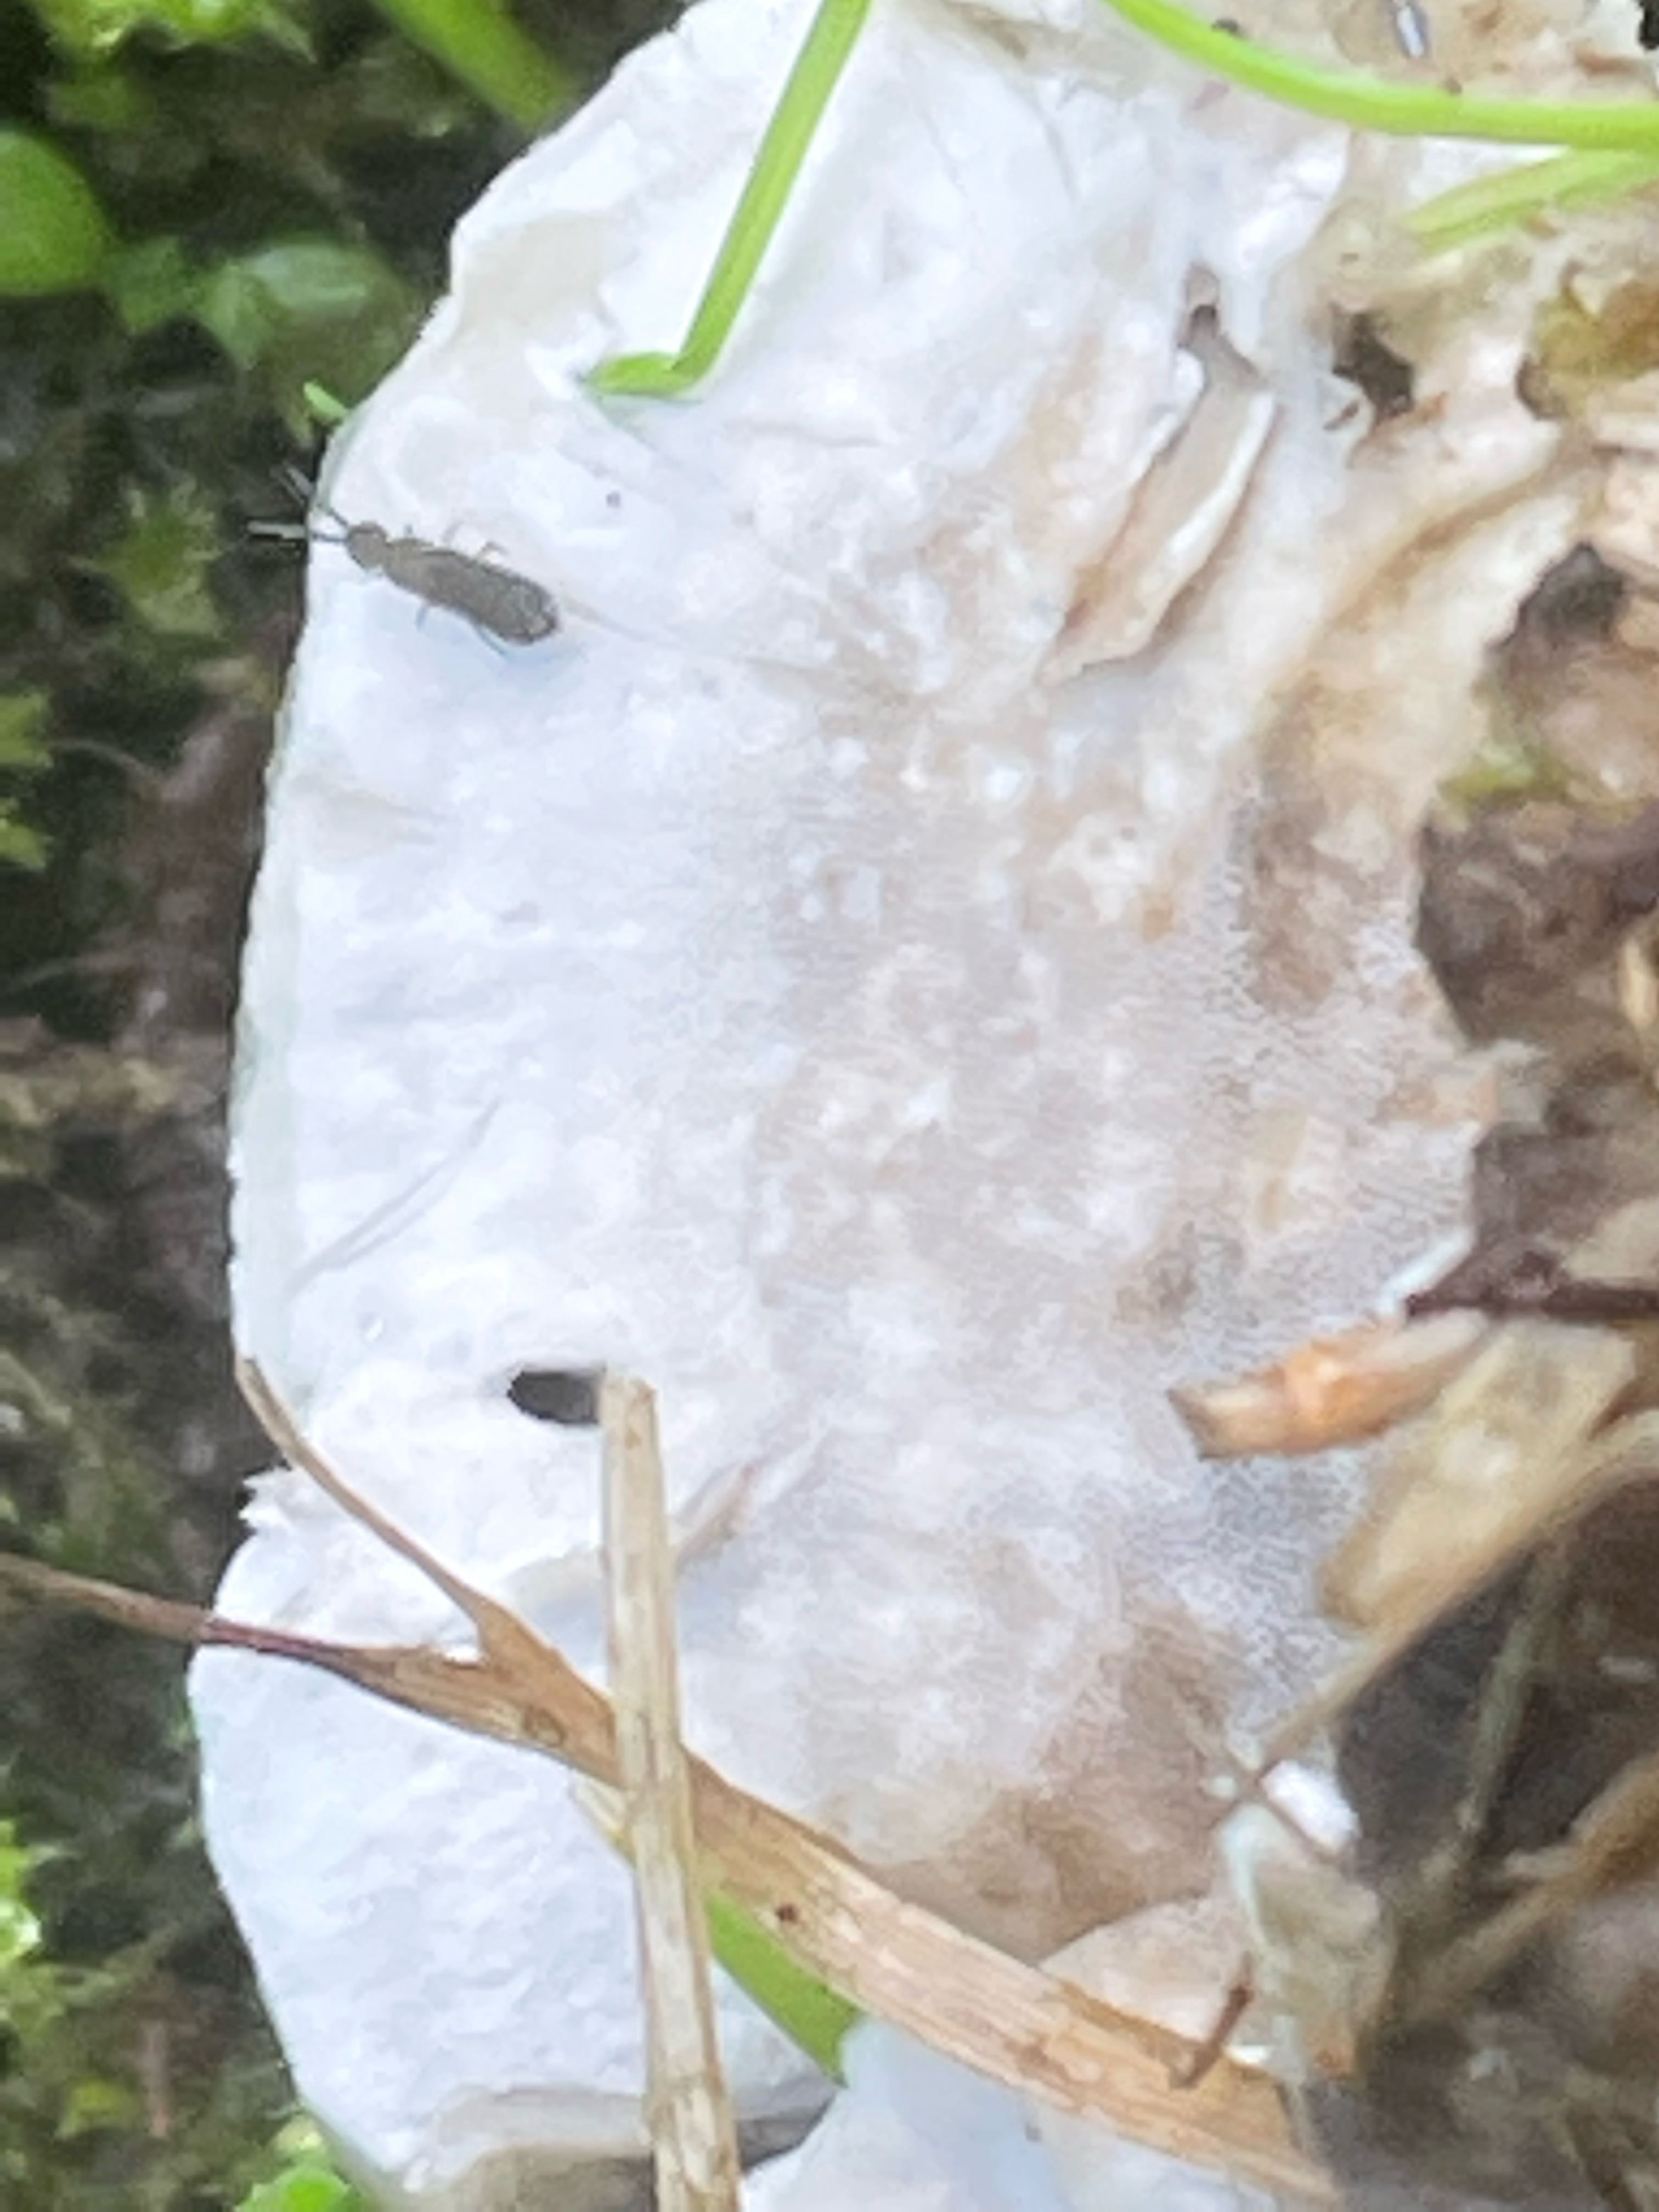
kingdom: Fungi
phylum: Basidiomycota
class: Agaricomycetes
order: Polyporales
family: Phanerochaetaceae
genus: Bjerkandera
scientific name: Bjerkandera fumosa
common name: grågul sodporesvamp
